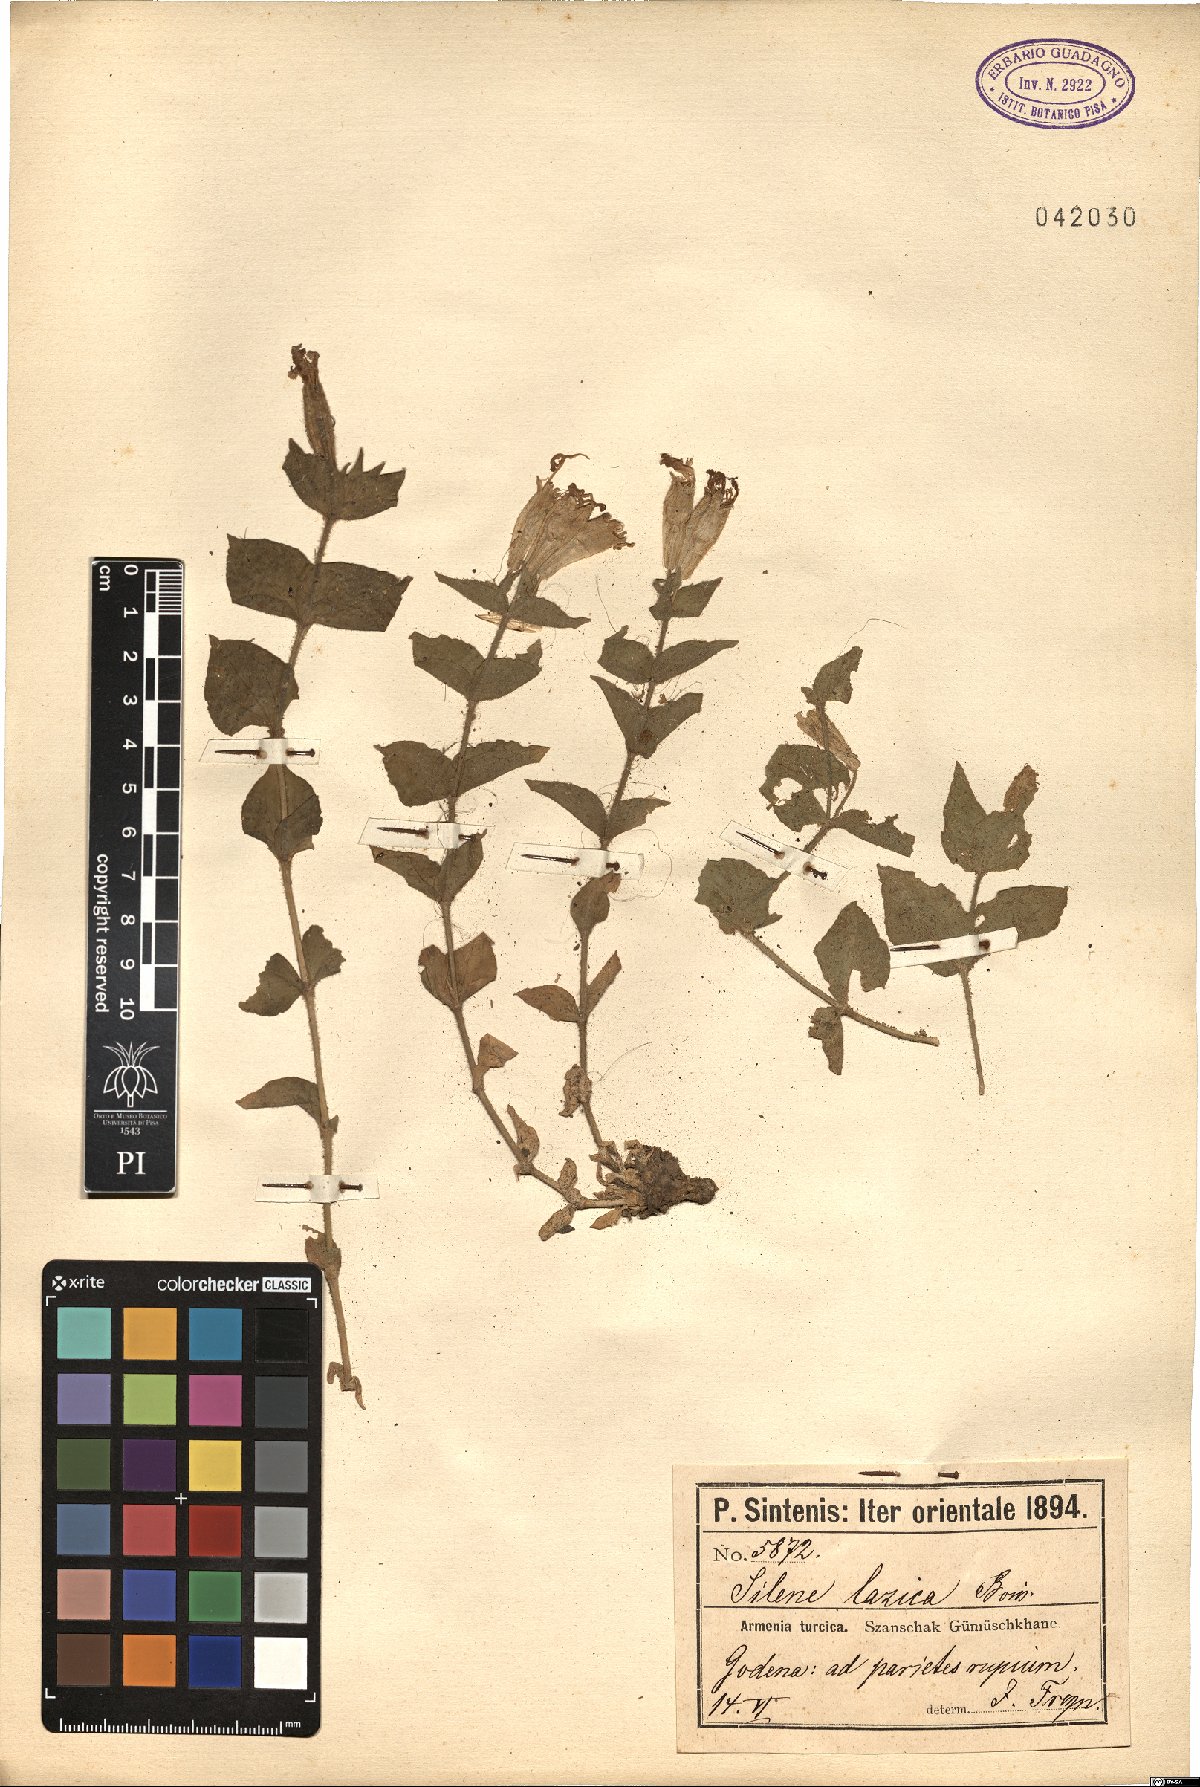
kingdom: Plantae
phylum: Tracheophyta
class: Magnoliopsida
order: Caryophyllales
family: Caryophyllaceae
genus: Silene
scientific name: Silene lazica
